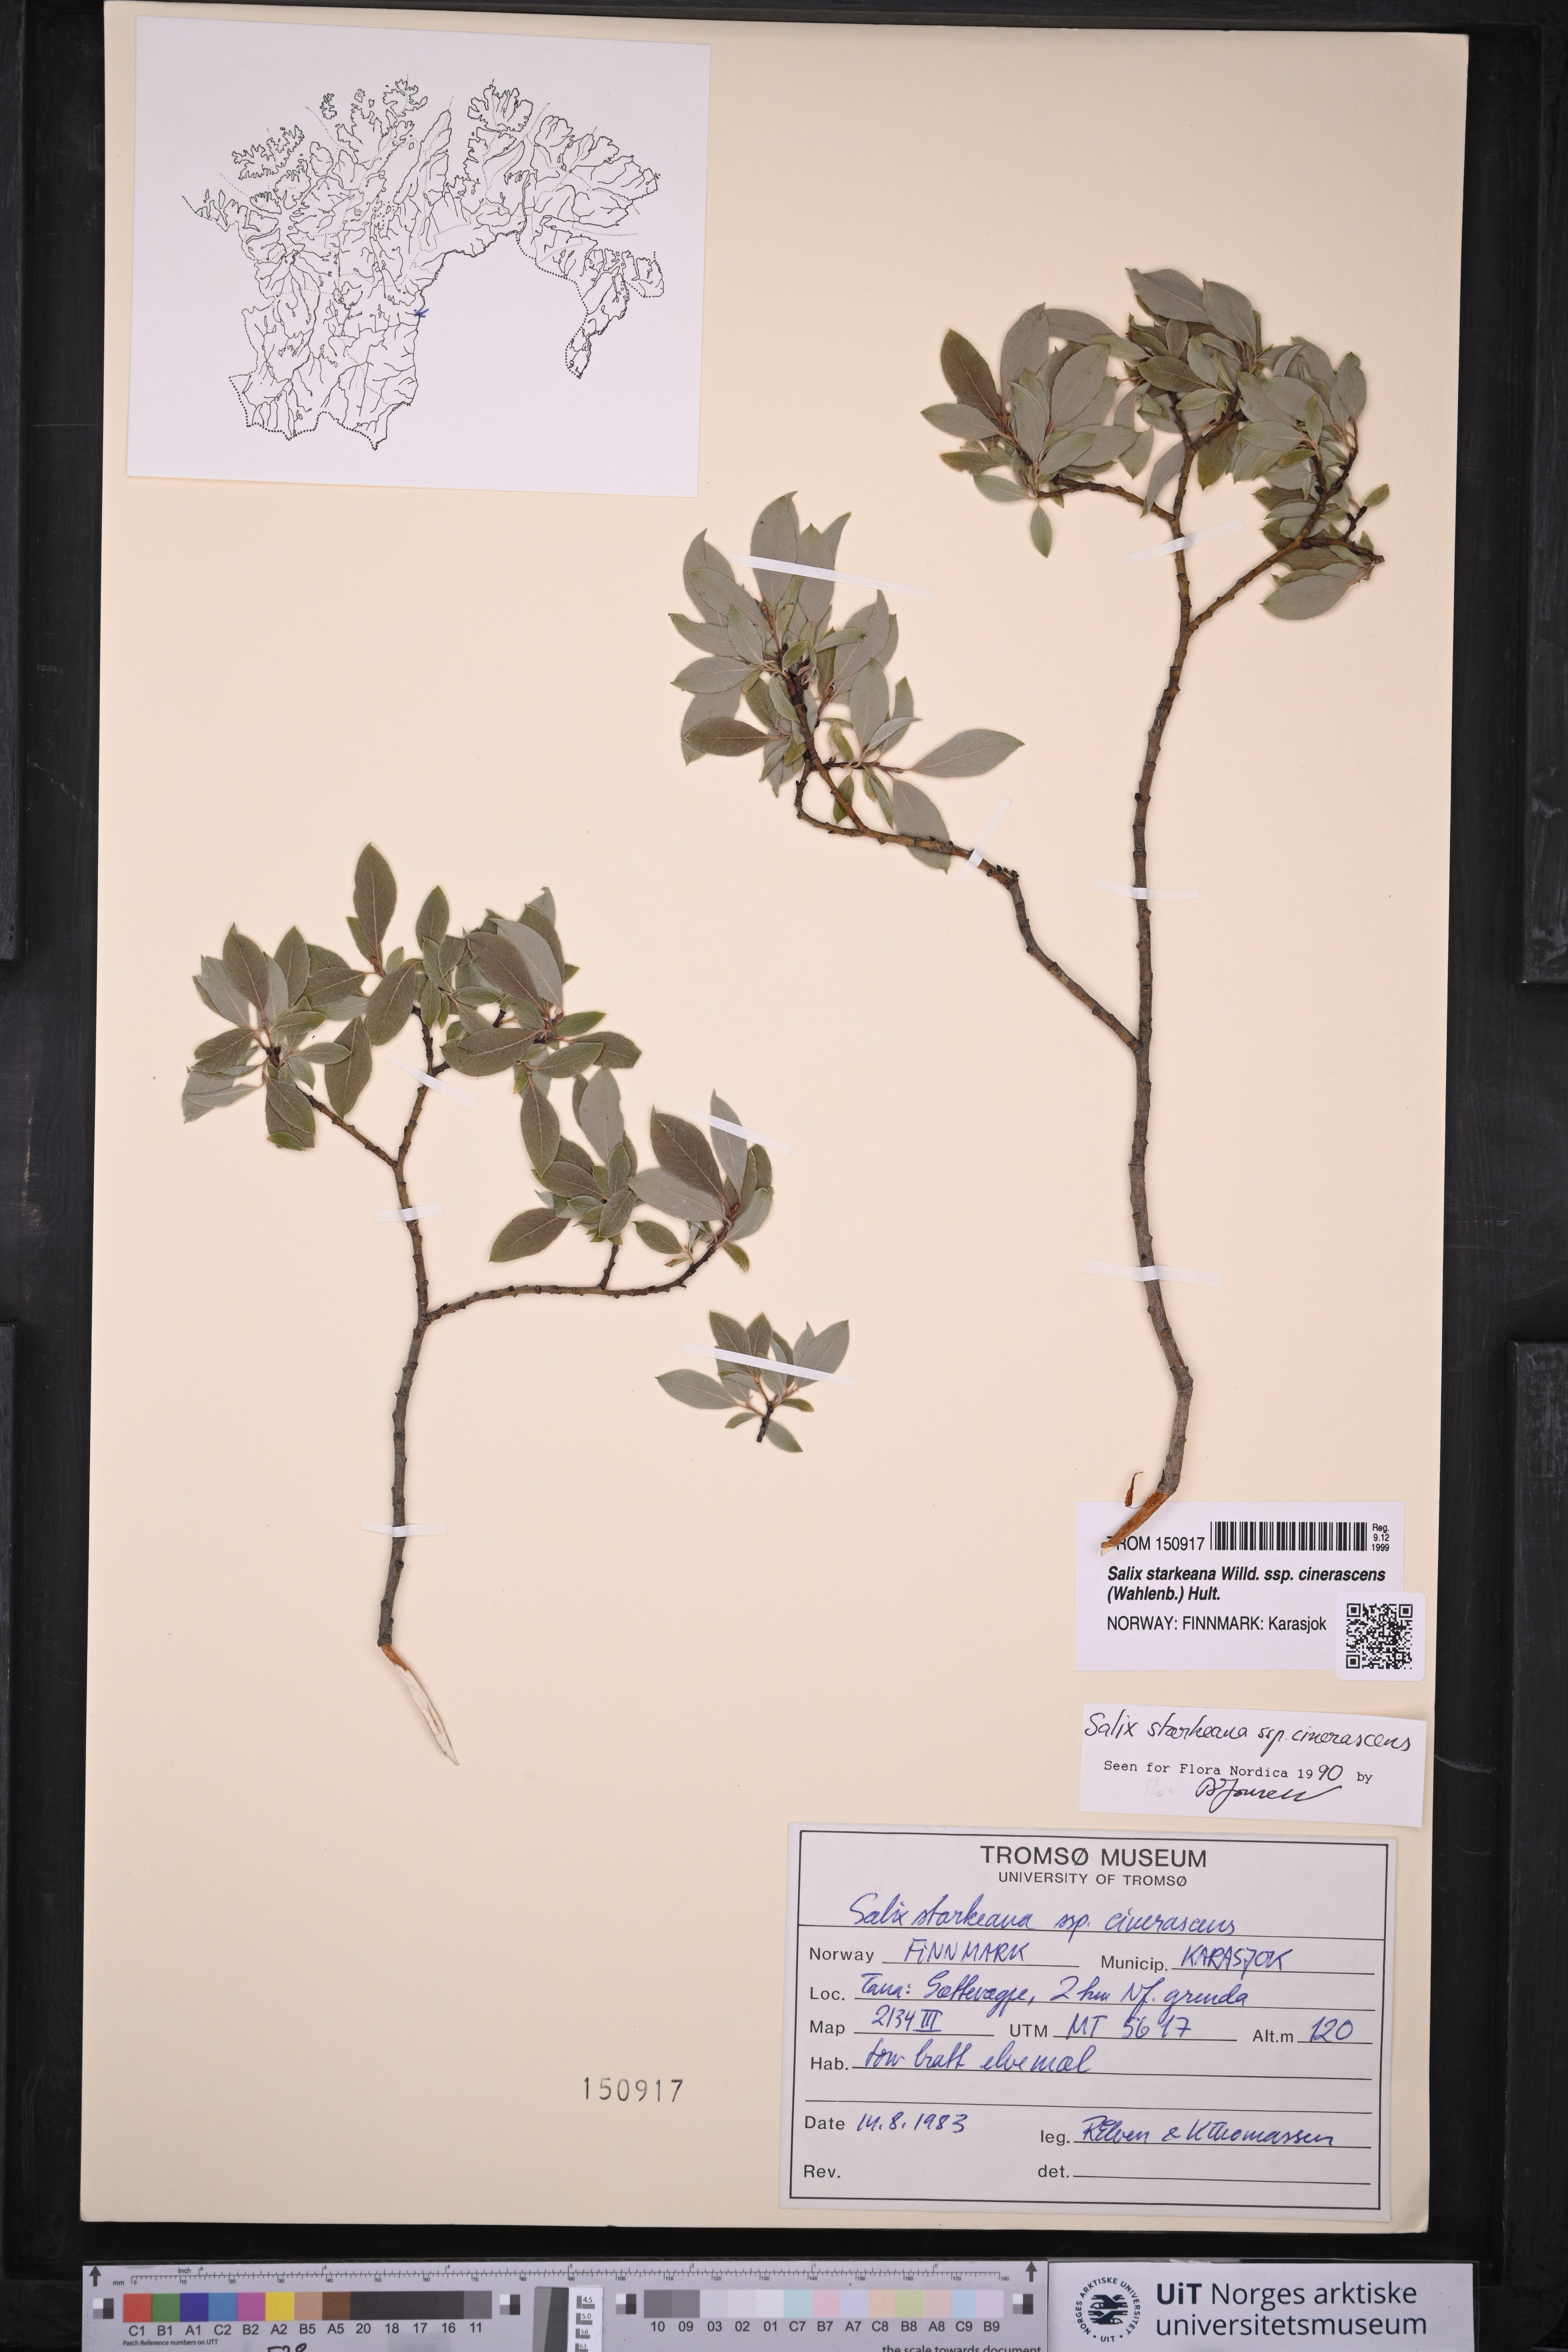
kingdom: Plantae
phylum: Tracheophyta
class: Magnoliopsida
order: Malpighiales
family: Salicaceae
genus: Salix
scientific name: Salix bebbiana
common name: Bebb's willow
